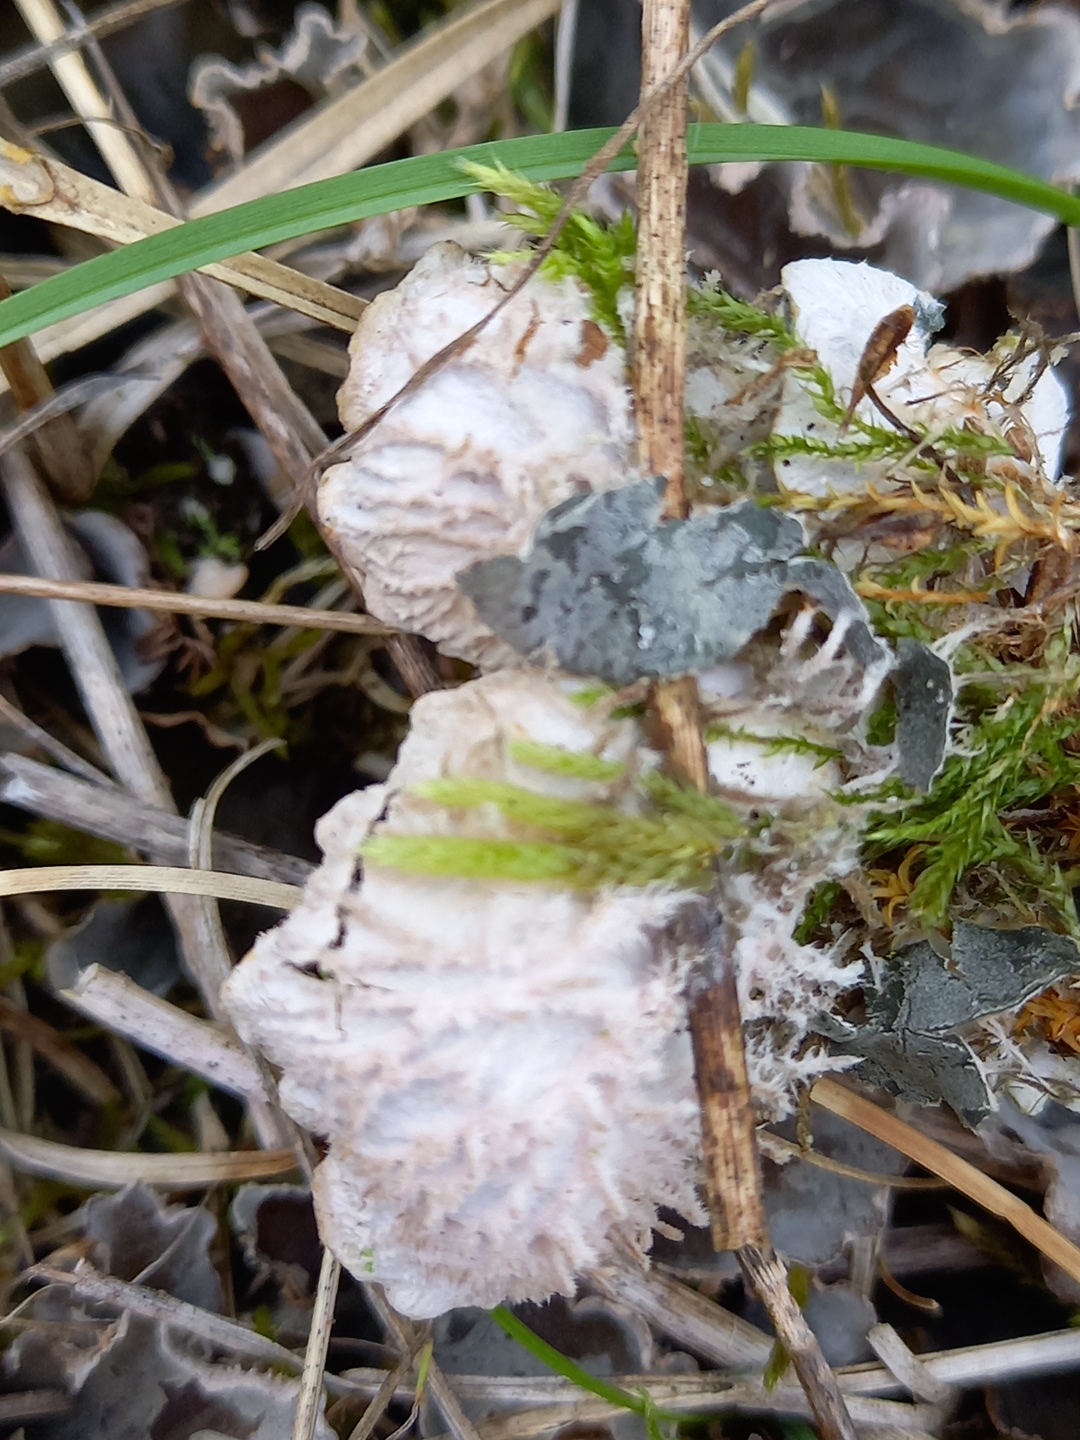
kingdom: Fungi
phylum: Ascomycota
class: Lecanoromycetes
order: Peltigerales
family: Peltigeraceae
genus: Peltigera
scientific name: Peltigera canina
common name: hunde-skjoldlav
